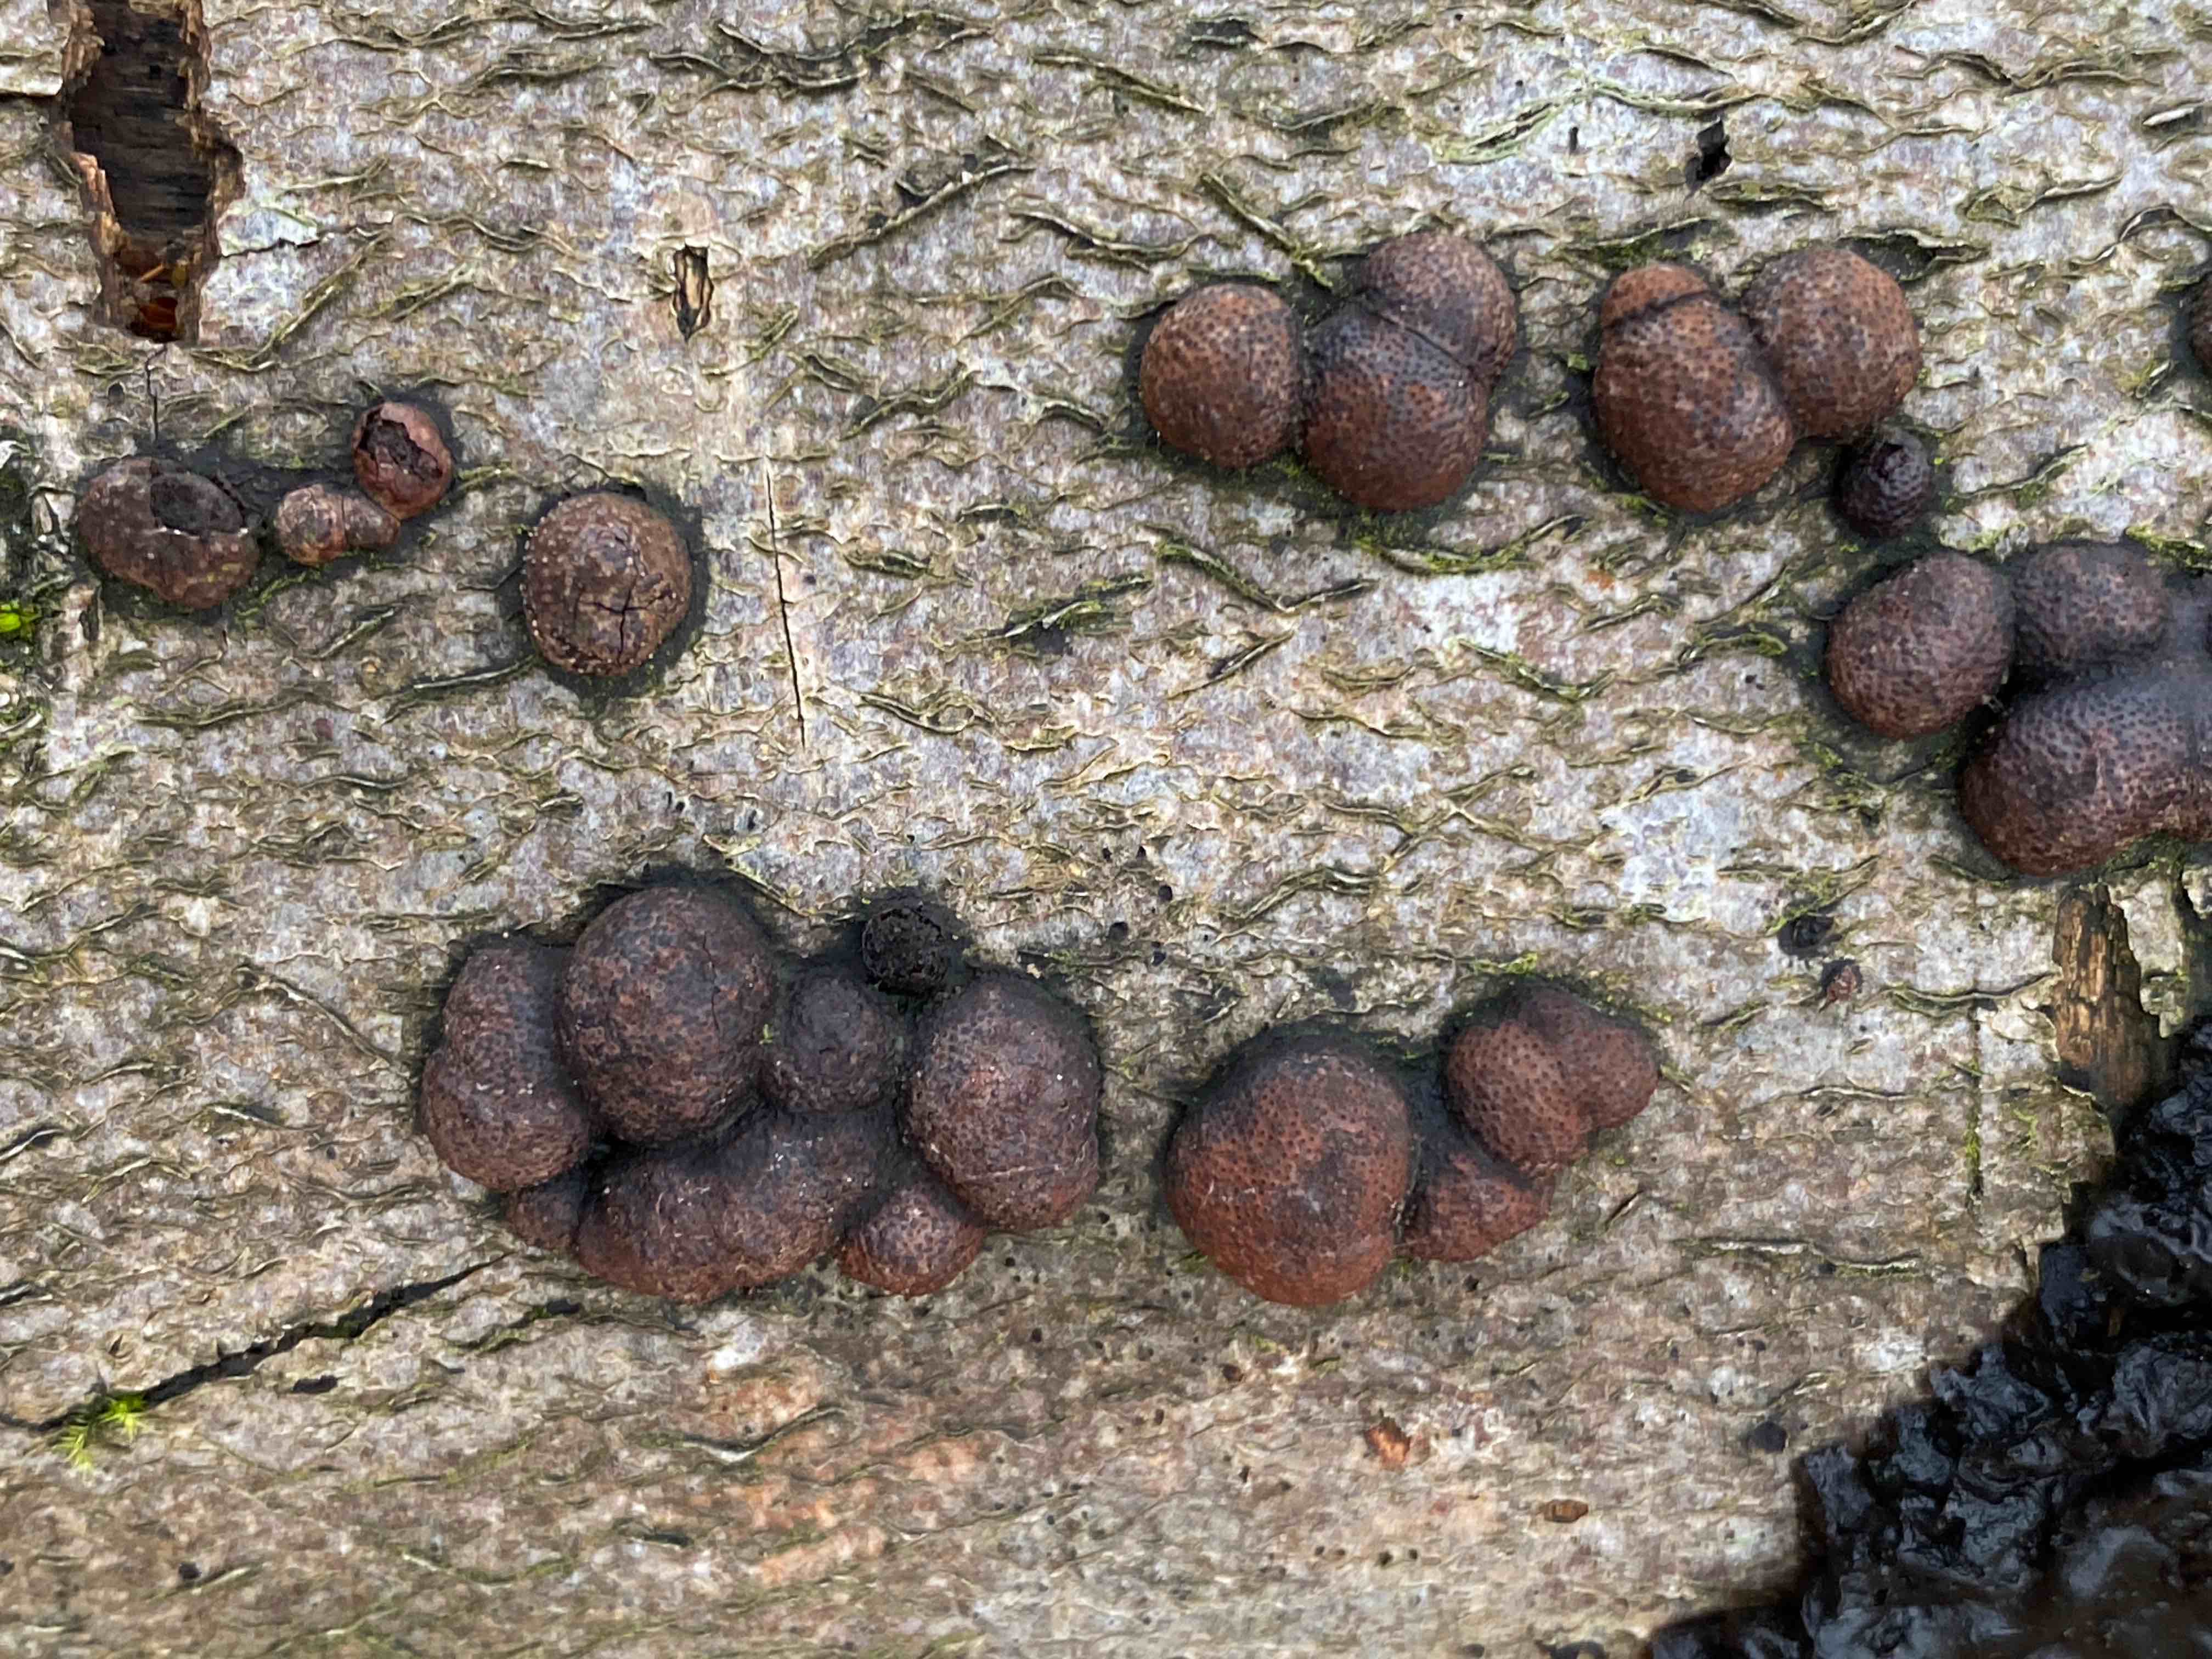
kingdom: Fungi
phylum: Ascomycota
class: Sordariomycetes
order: Xylariales
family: Hypoxylaceae
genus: Hypoxylon
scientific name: Hypoxylon fragiforme
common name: kuljordbær
